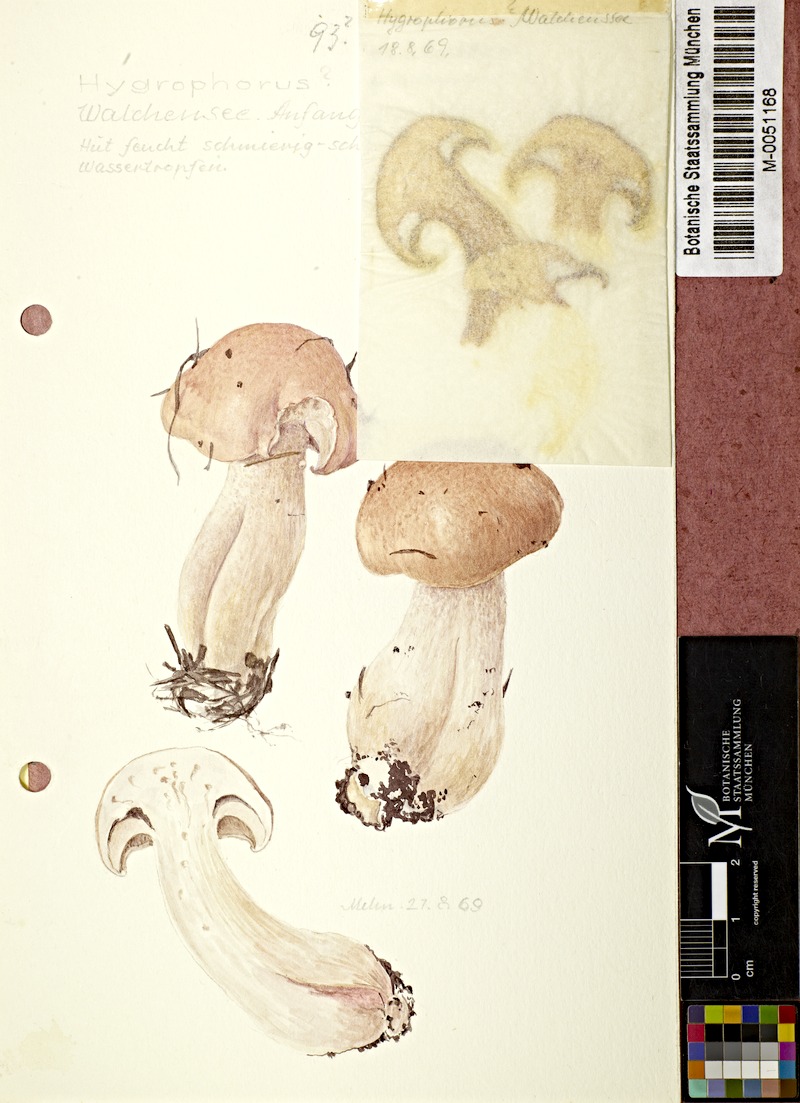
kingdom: Fungi
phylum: Basidiomycota
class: Agaricomycetes
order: Agaricales
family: Hygrophoraceae
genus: Hygrophorus
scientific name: Hygrophorus erubescens
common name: Blotched woodwax
